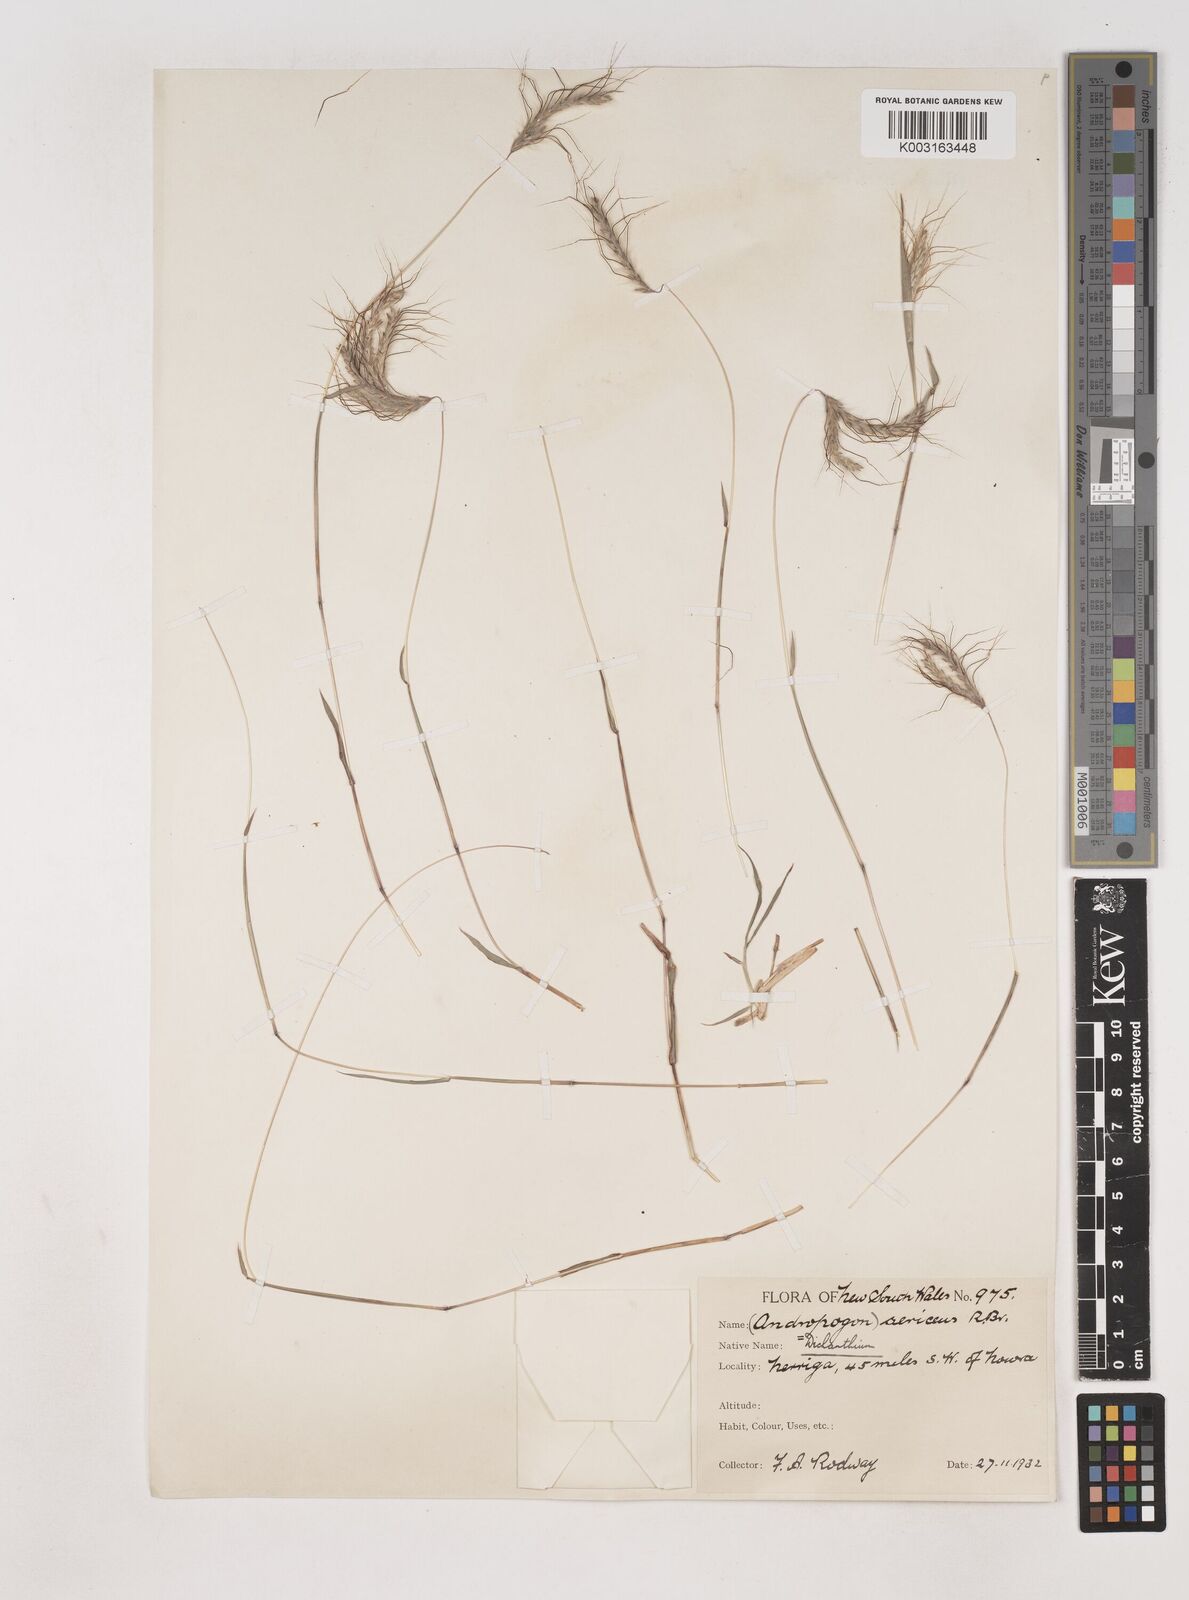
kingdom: Plantae
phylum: Tracheophyta
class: Liliopsida
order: Poales
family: Poaceae
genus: Dichanthium
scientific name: Dichanthium sericeum
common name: Silky bluestem
